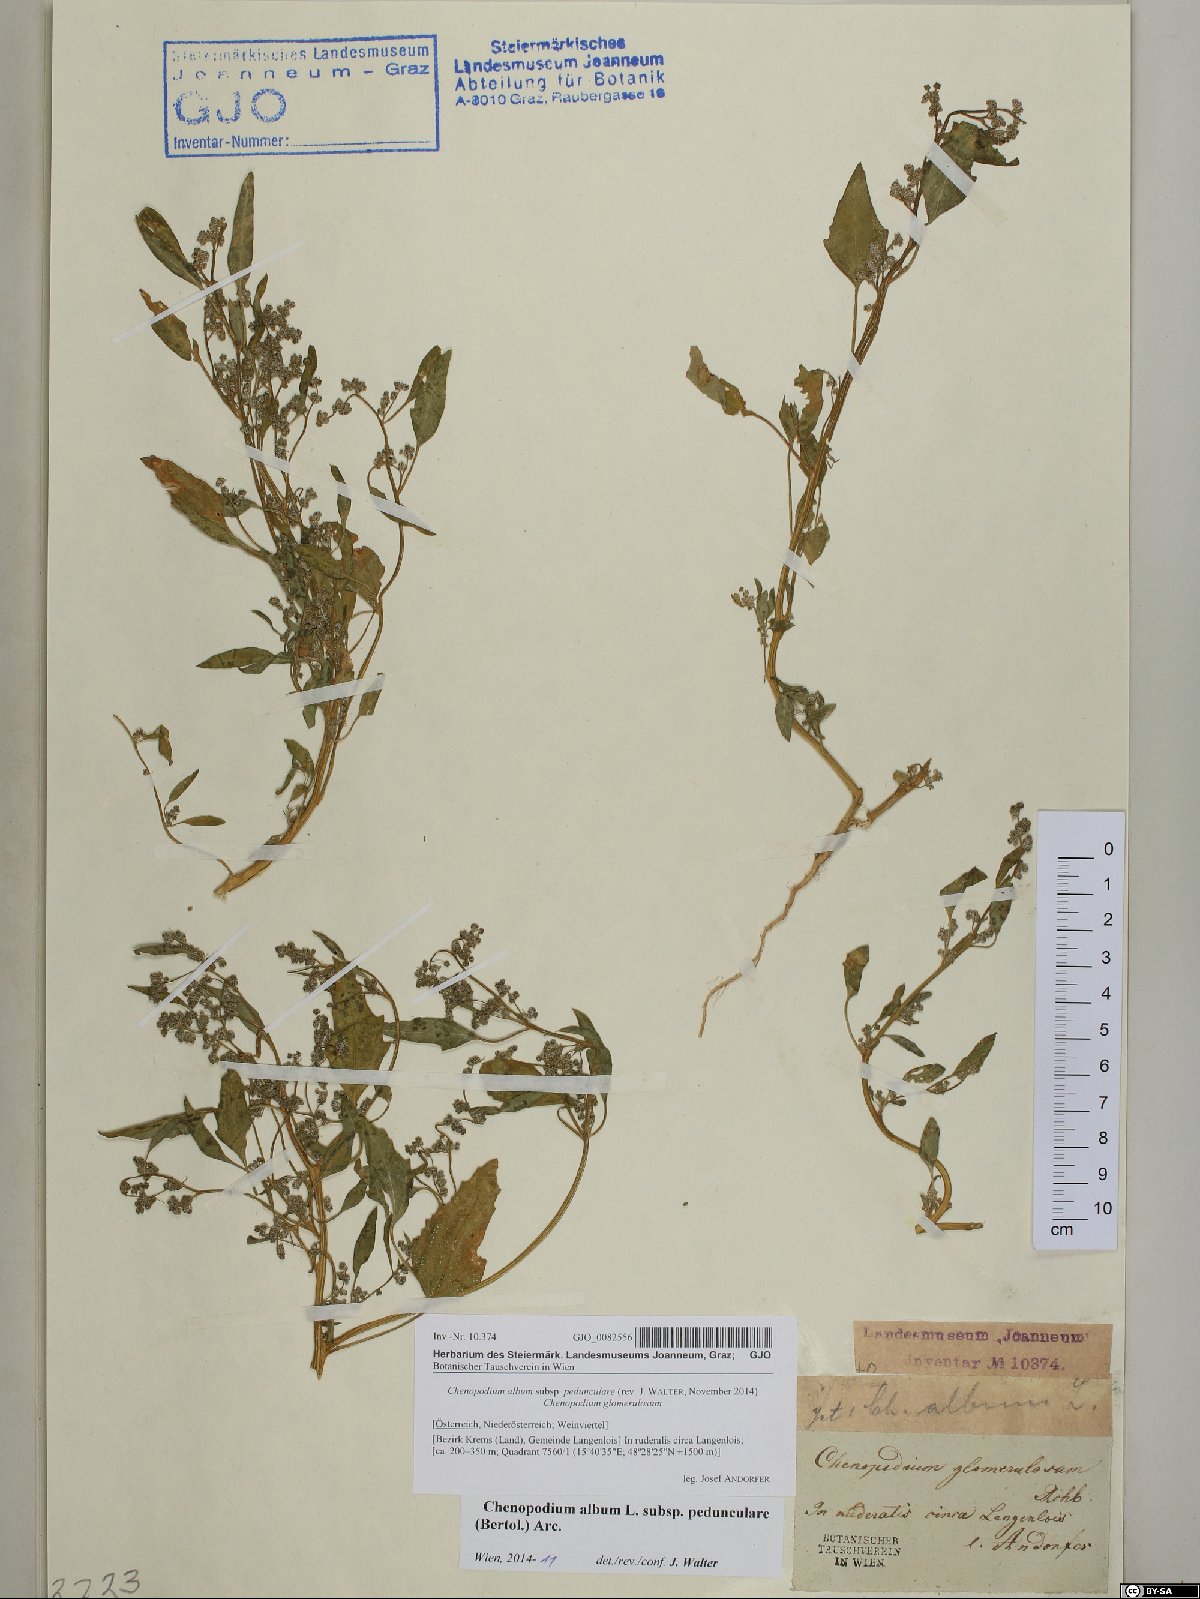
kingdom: Plantae
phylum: Tracheophyta
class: Magnoliopsida
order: Caryophyllales
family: Amaranthaceae
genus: Chenopodium
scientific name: Chenopodium album
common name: Fat-hen
